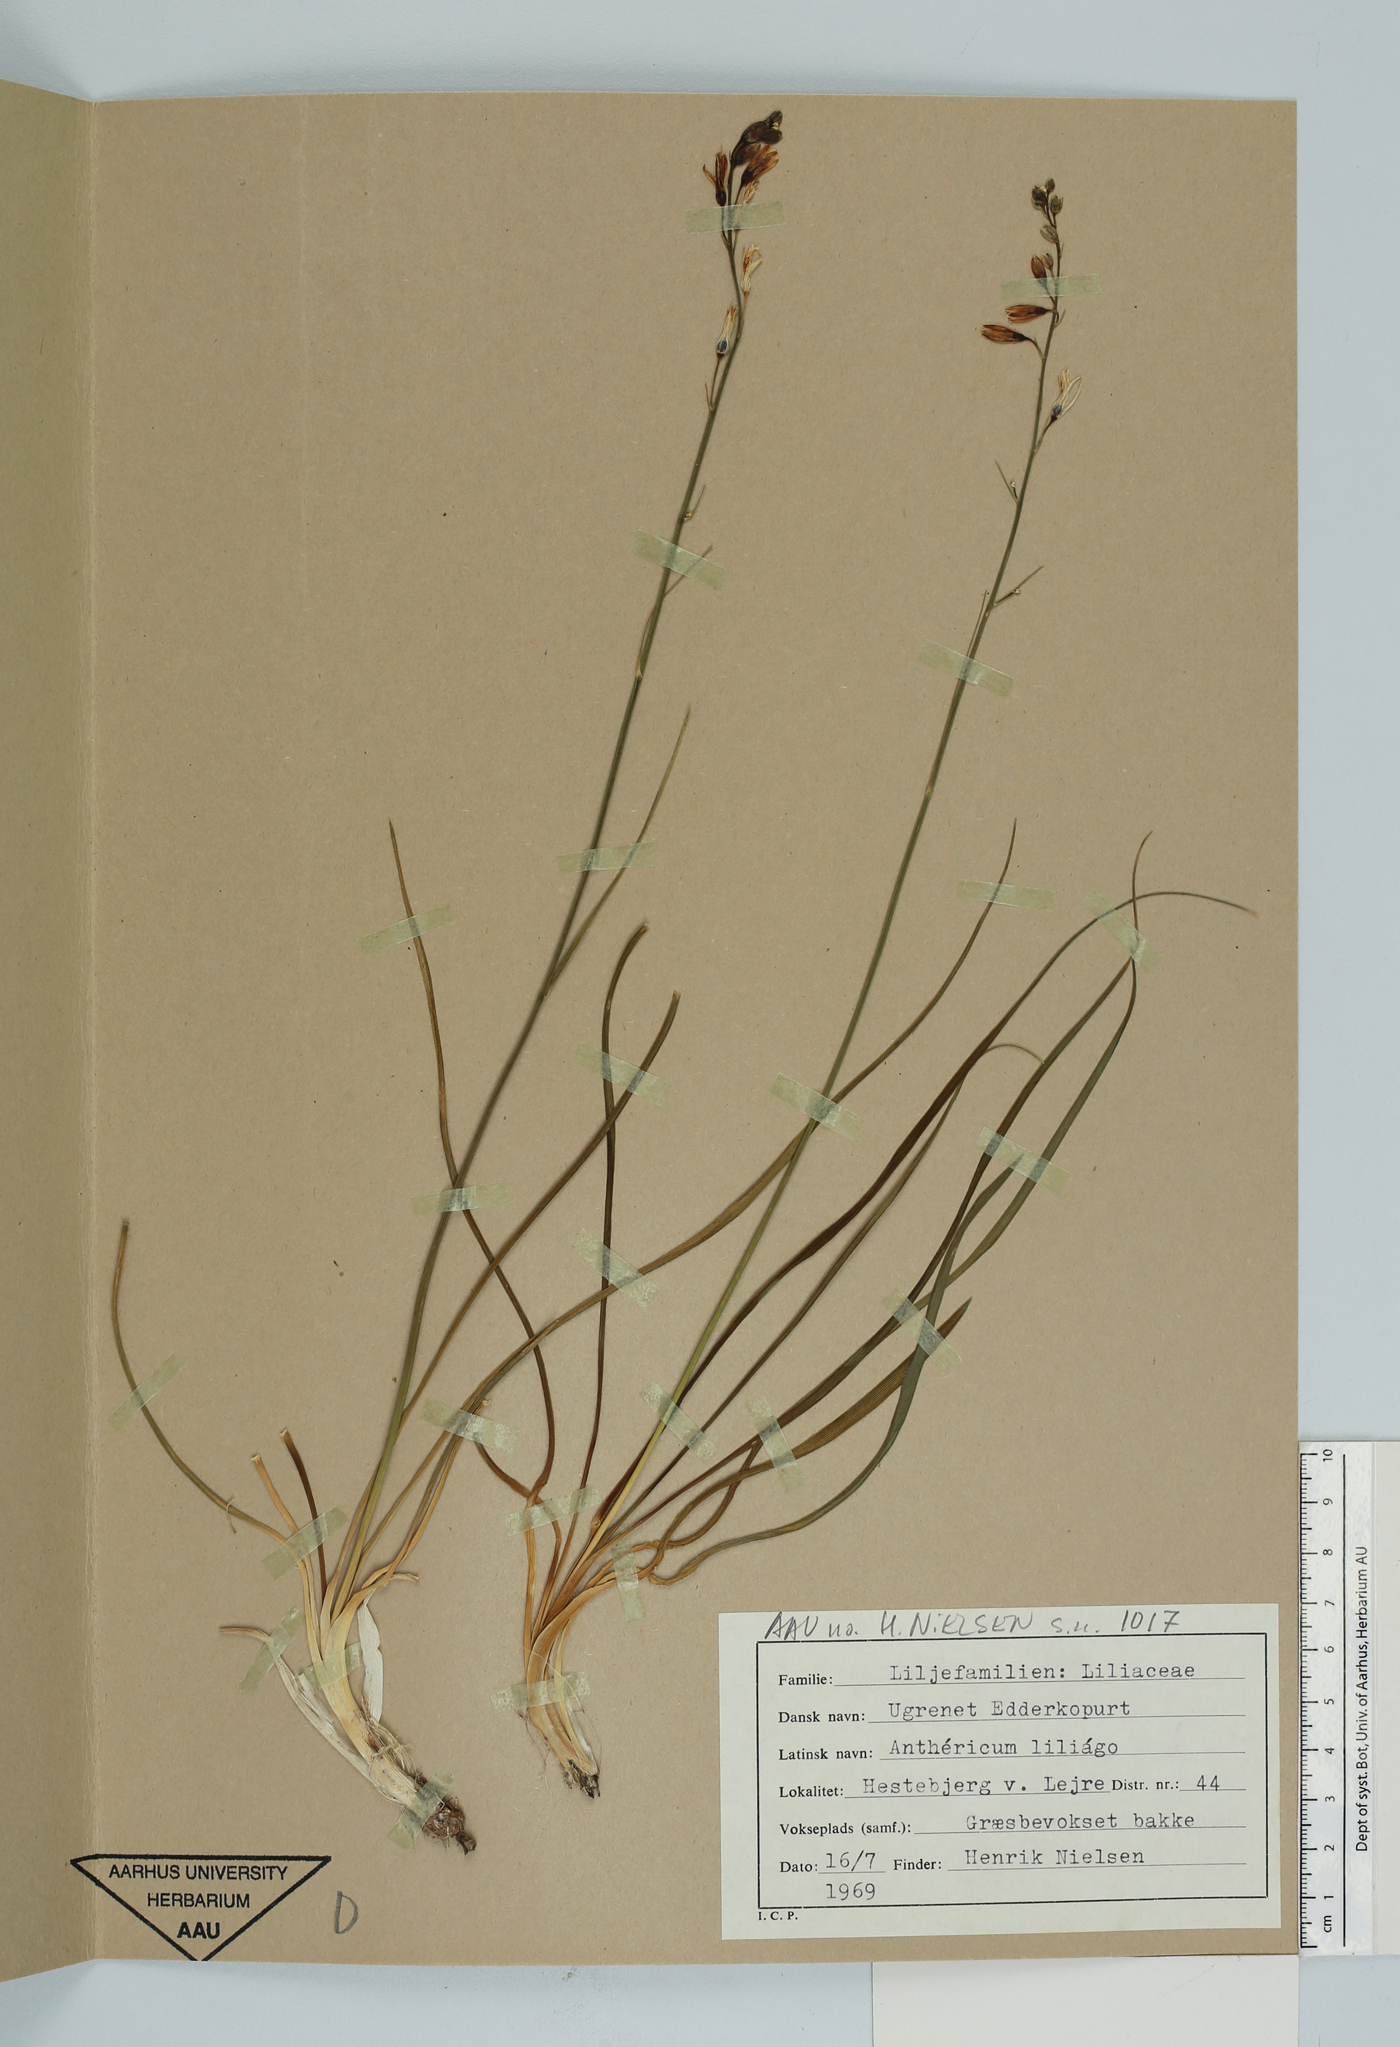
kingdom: Plantae
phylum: Tracheophyta
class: Liliopsida
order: Asparagales
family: Asparagaceae
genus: Anthericum
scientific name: Anthericum liliago
